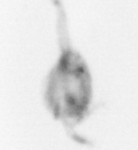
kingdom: Animalia
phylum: Arthropoda
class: Copepoda
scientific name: Copepoda
